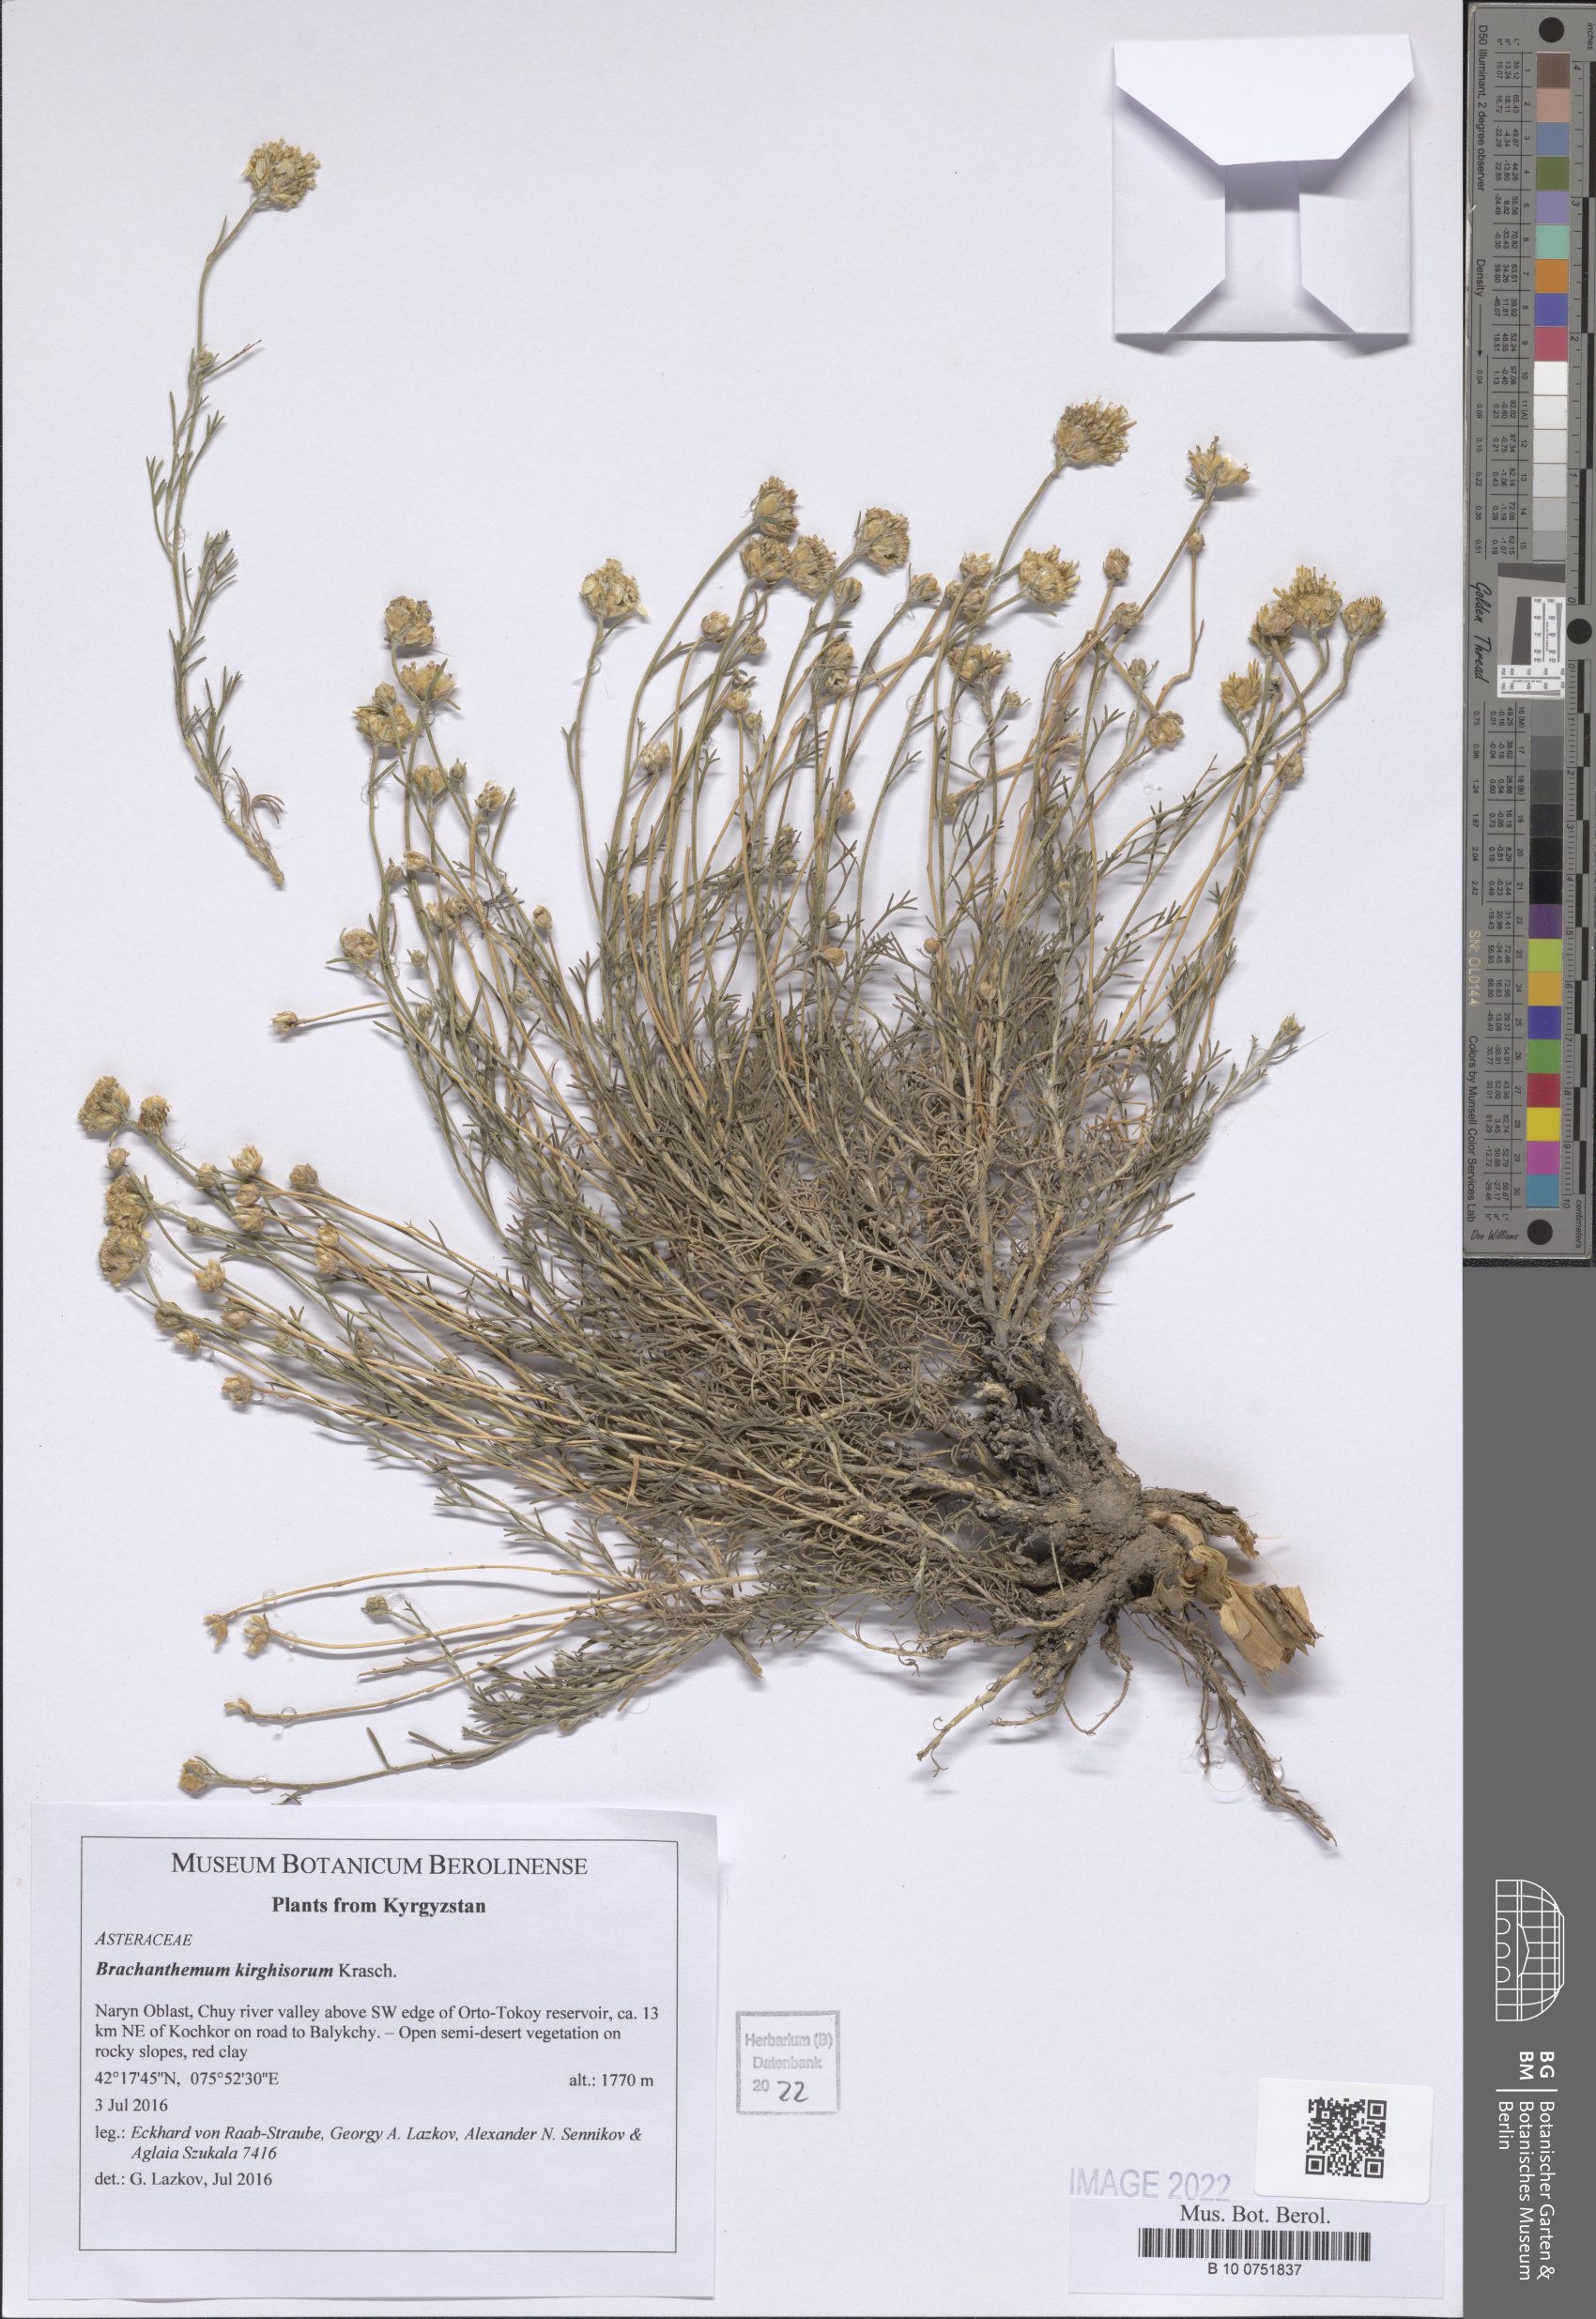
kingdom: Plantae
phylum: Tracheophyta
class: Magnoliopsida
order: Asterales
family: Asteraceae
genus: Brachanthemum
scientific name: Brachanthemum kirghisorum
